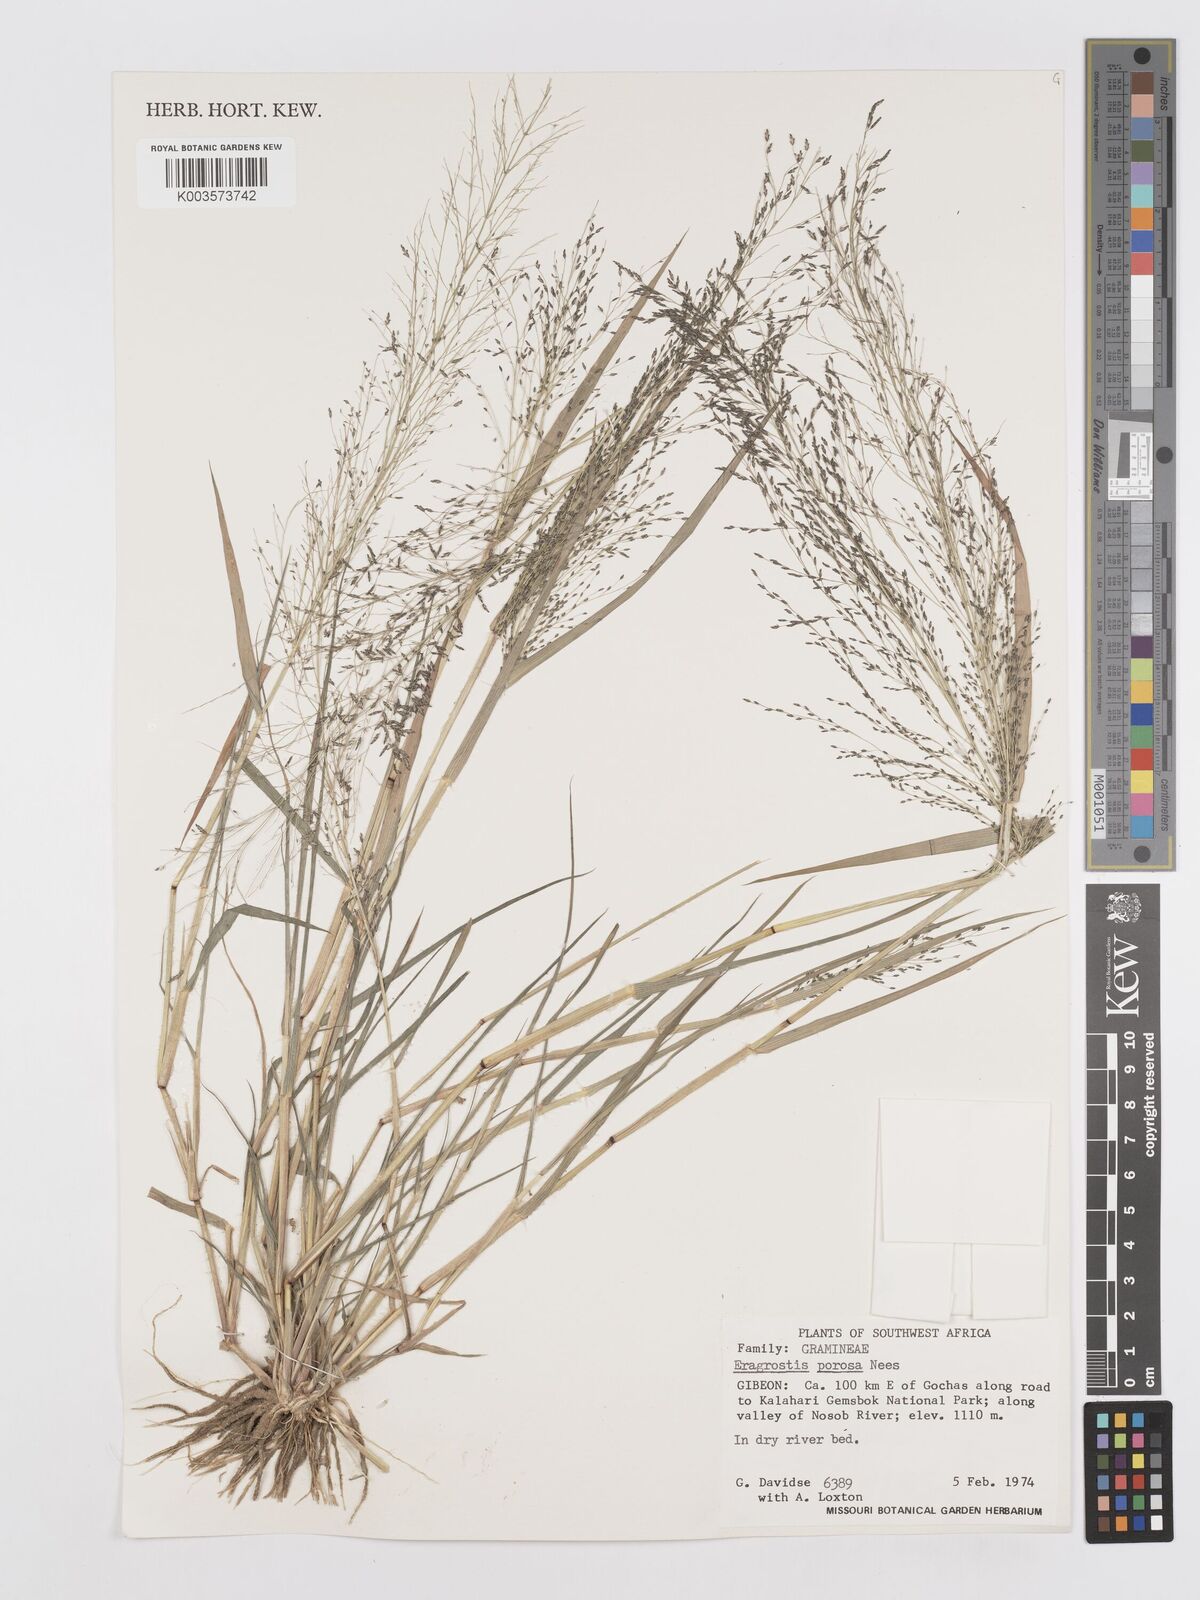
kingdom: Plantae
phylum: Tracheophyta
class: Liliopsida
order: Poales
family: Poaceae
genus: Eragrostis
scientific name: Eragrostis porosa
